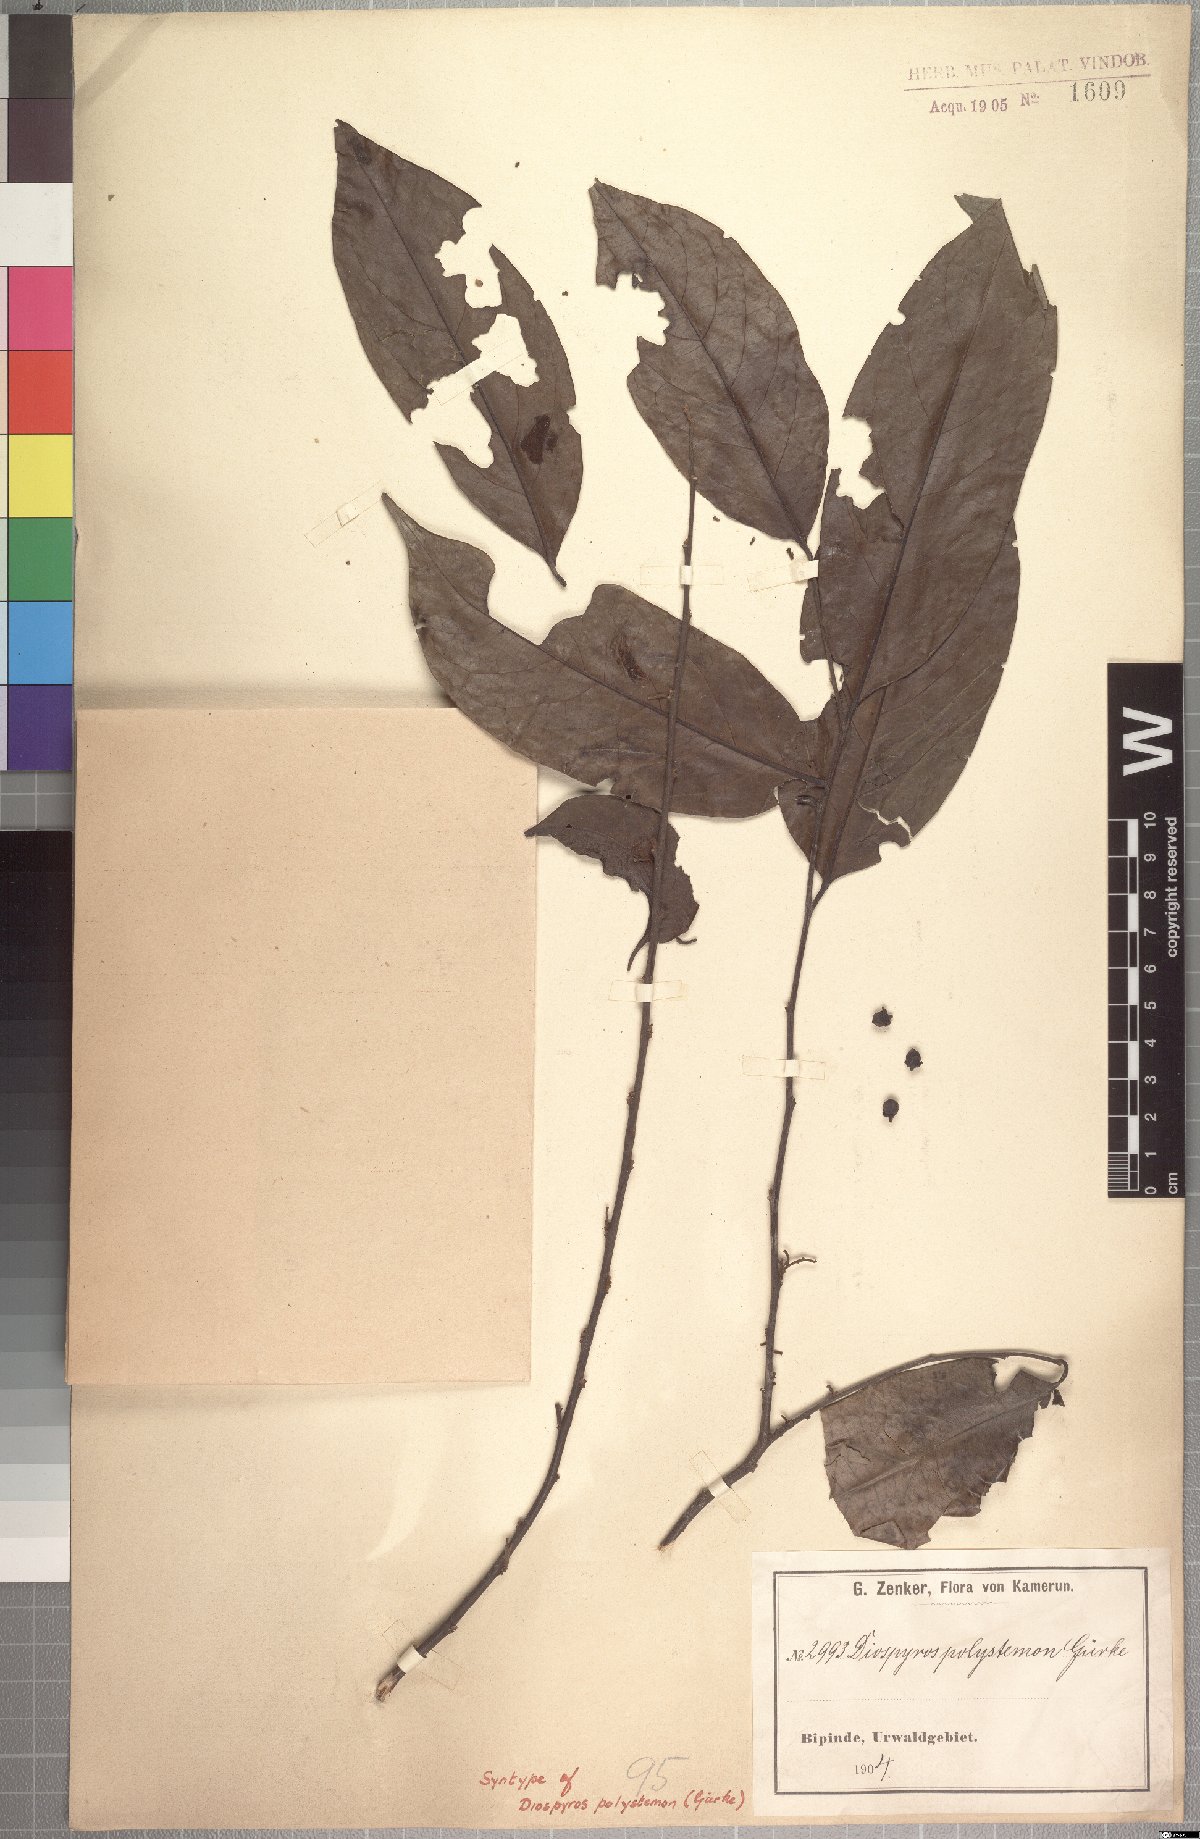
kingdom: Plantae
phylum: Tracheophyta
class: Magnoliopsida
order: Ericales
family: Ebenaceae
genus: Diospyros
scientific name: Diospyros polystemon
